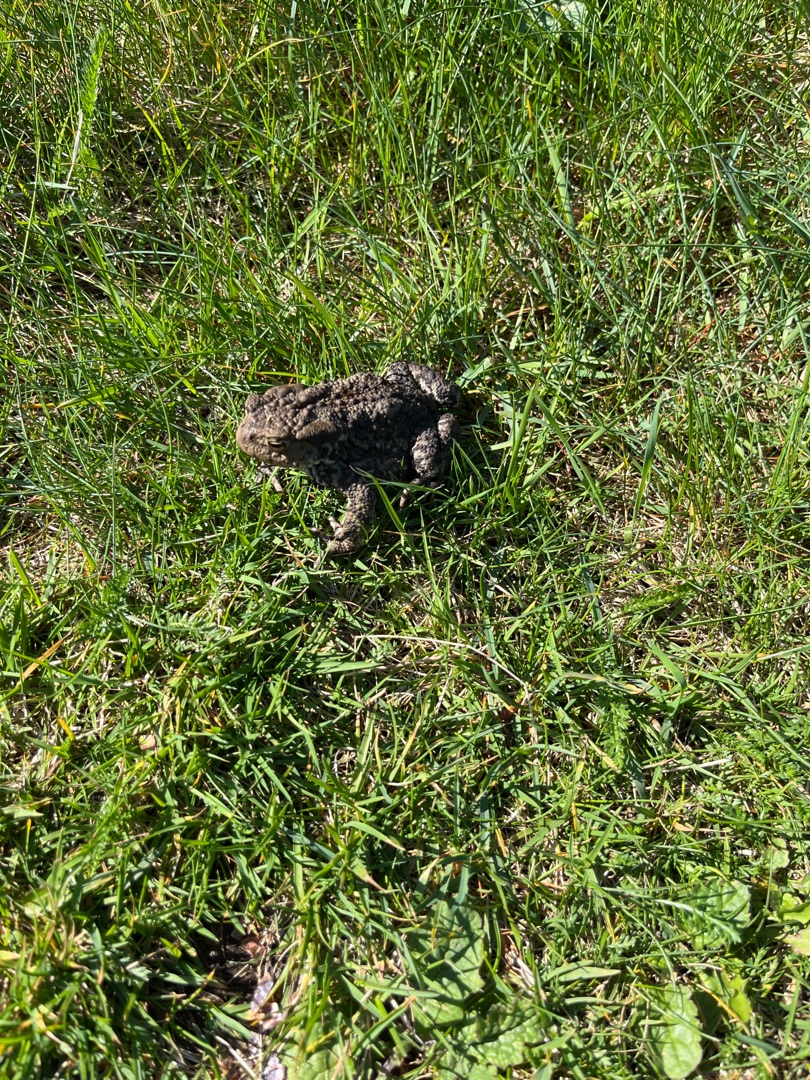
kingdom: Animalia
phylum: Chordata
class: Amphibia
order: Anura
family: Bufonidae
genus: Bufo
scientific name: Bufo bufo
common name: Skrubtudse
